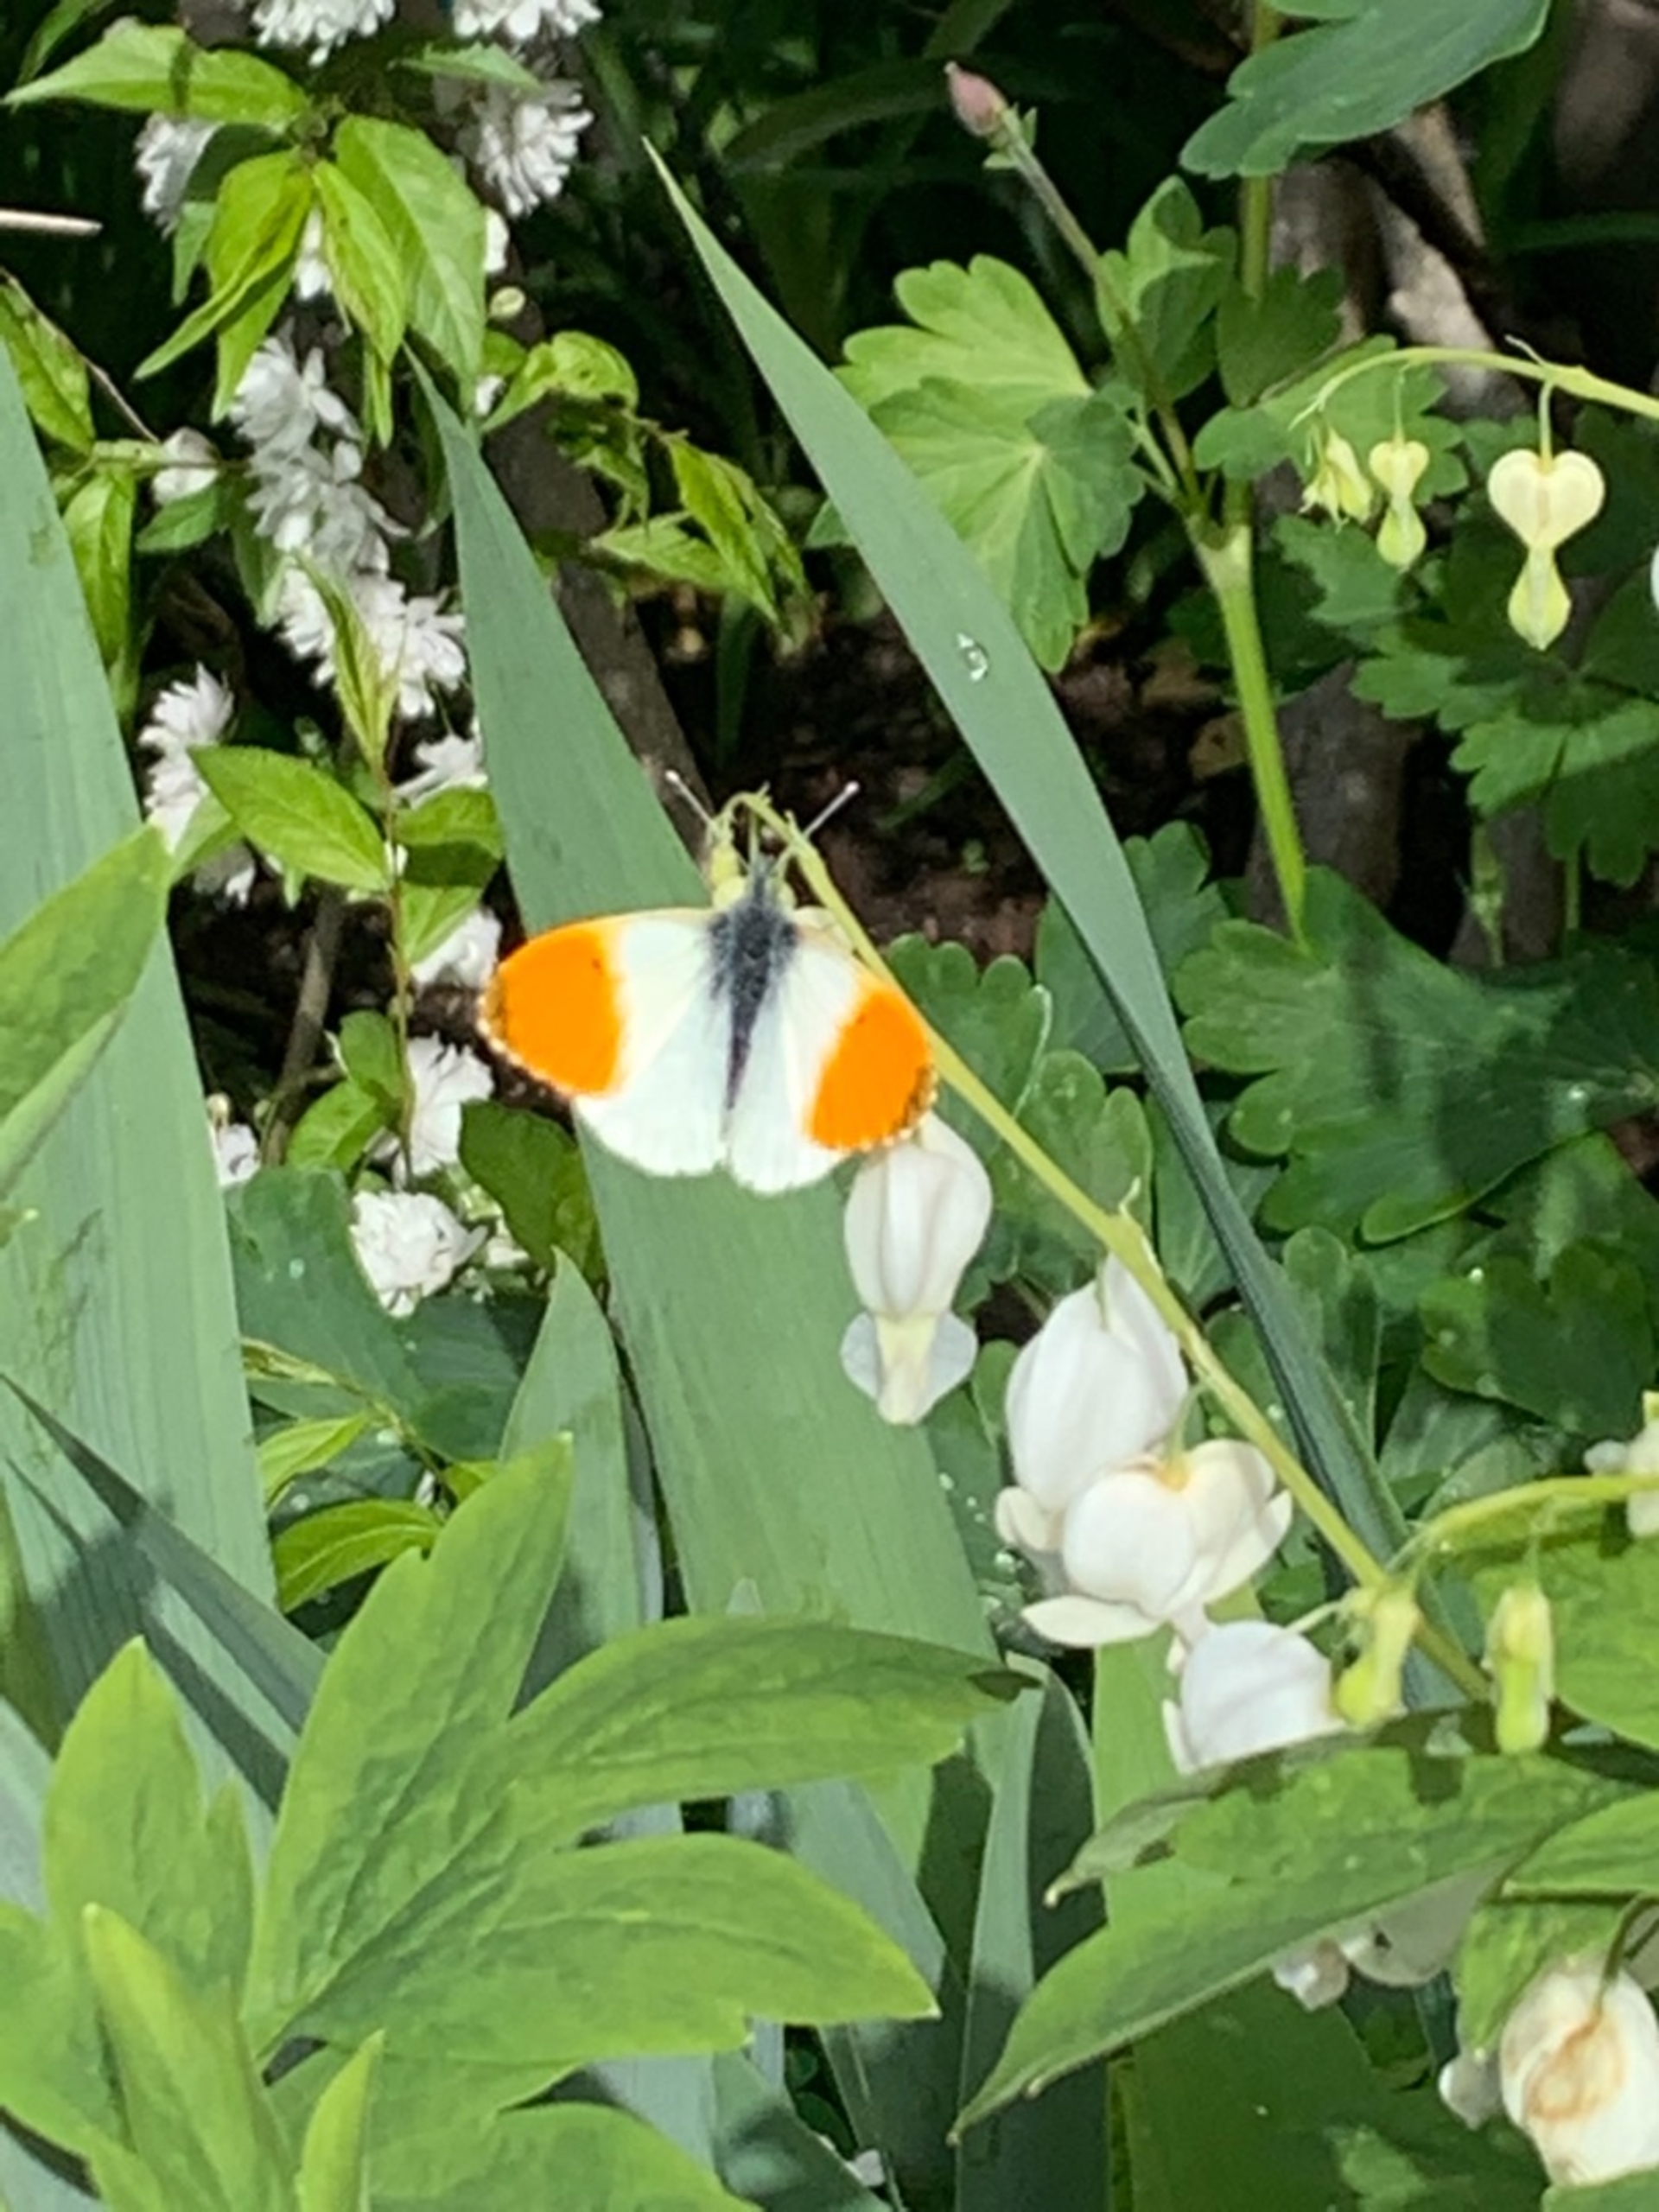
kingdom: Animalia
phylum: Arthropoda
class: Insecta
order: Lepidoptera
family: Pieridae
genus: Anthocharis
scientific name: Anthocharis cardamines
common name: Aurora
